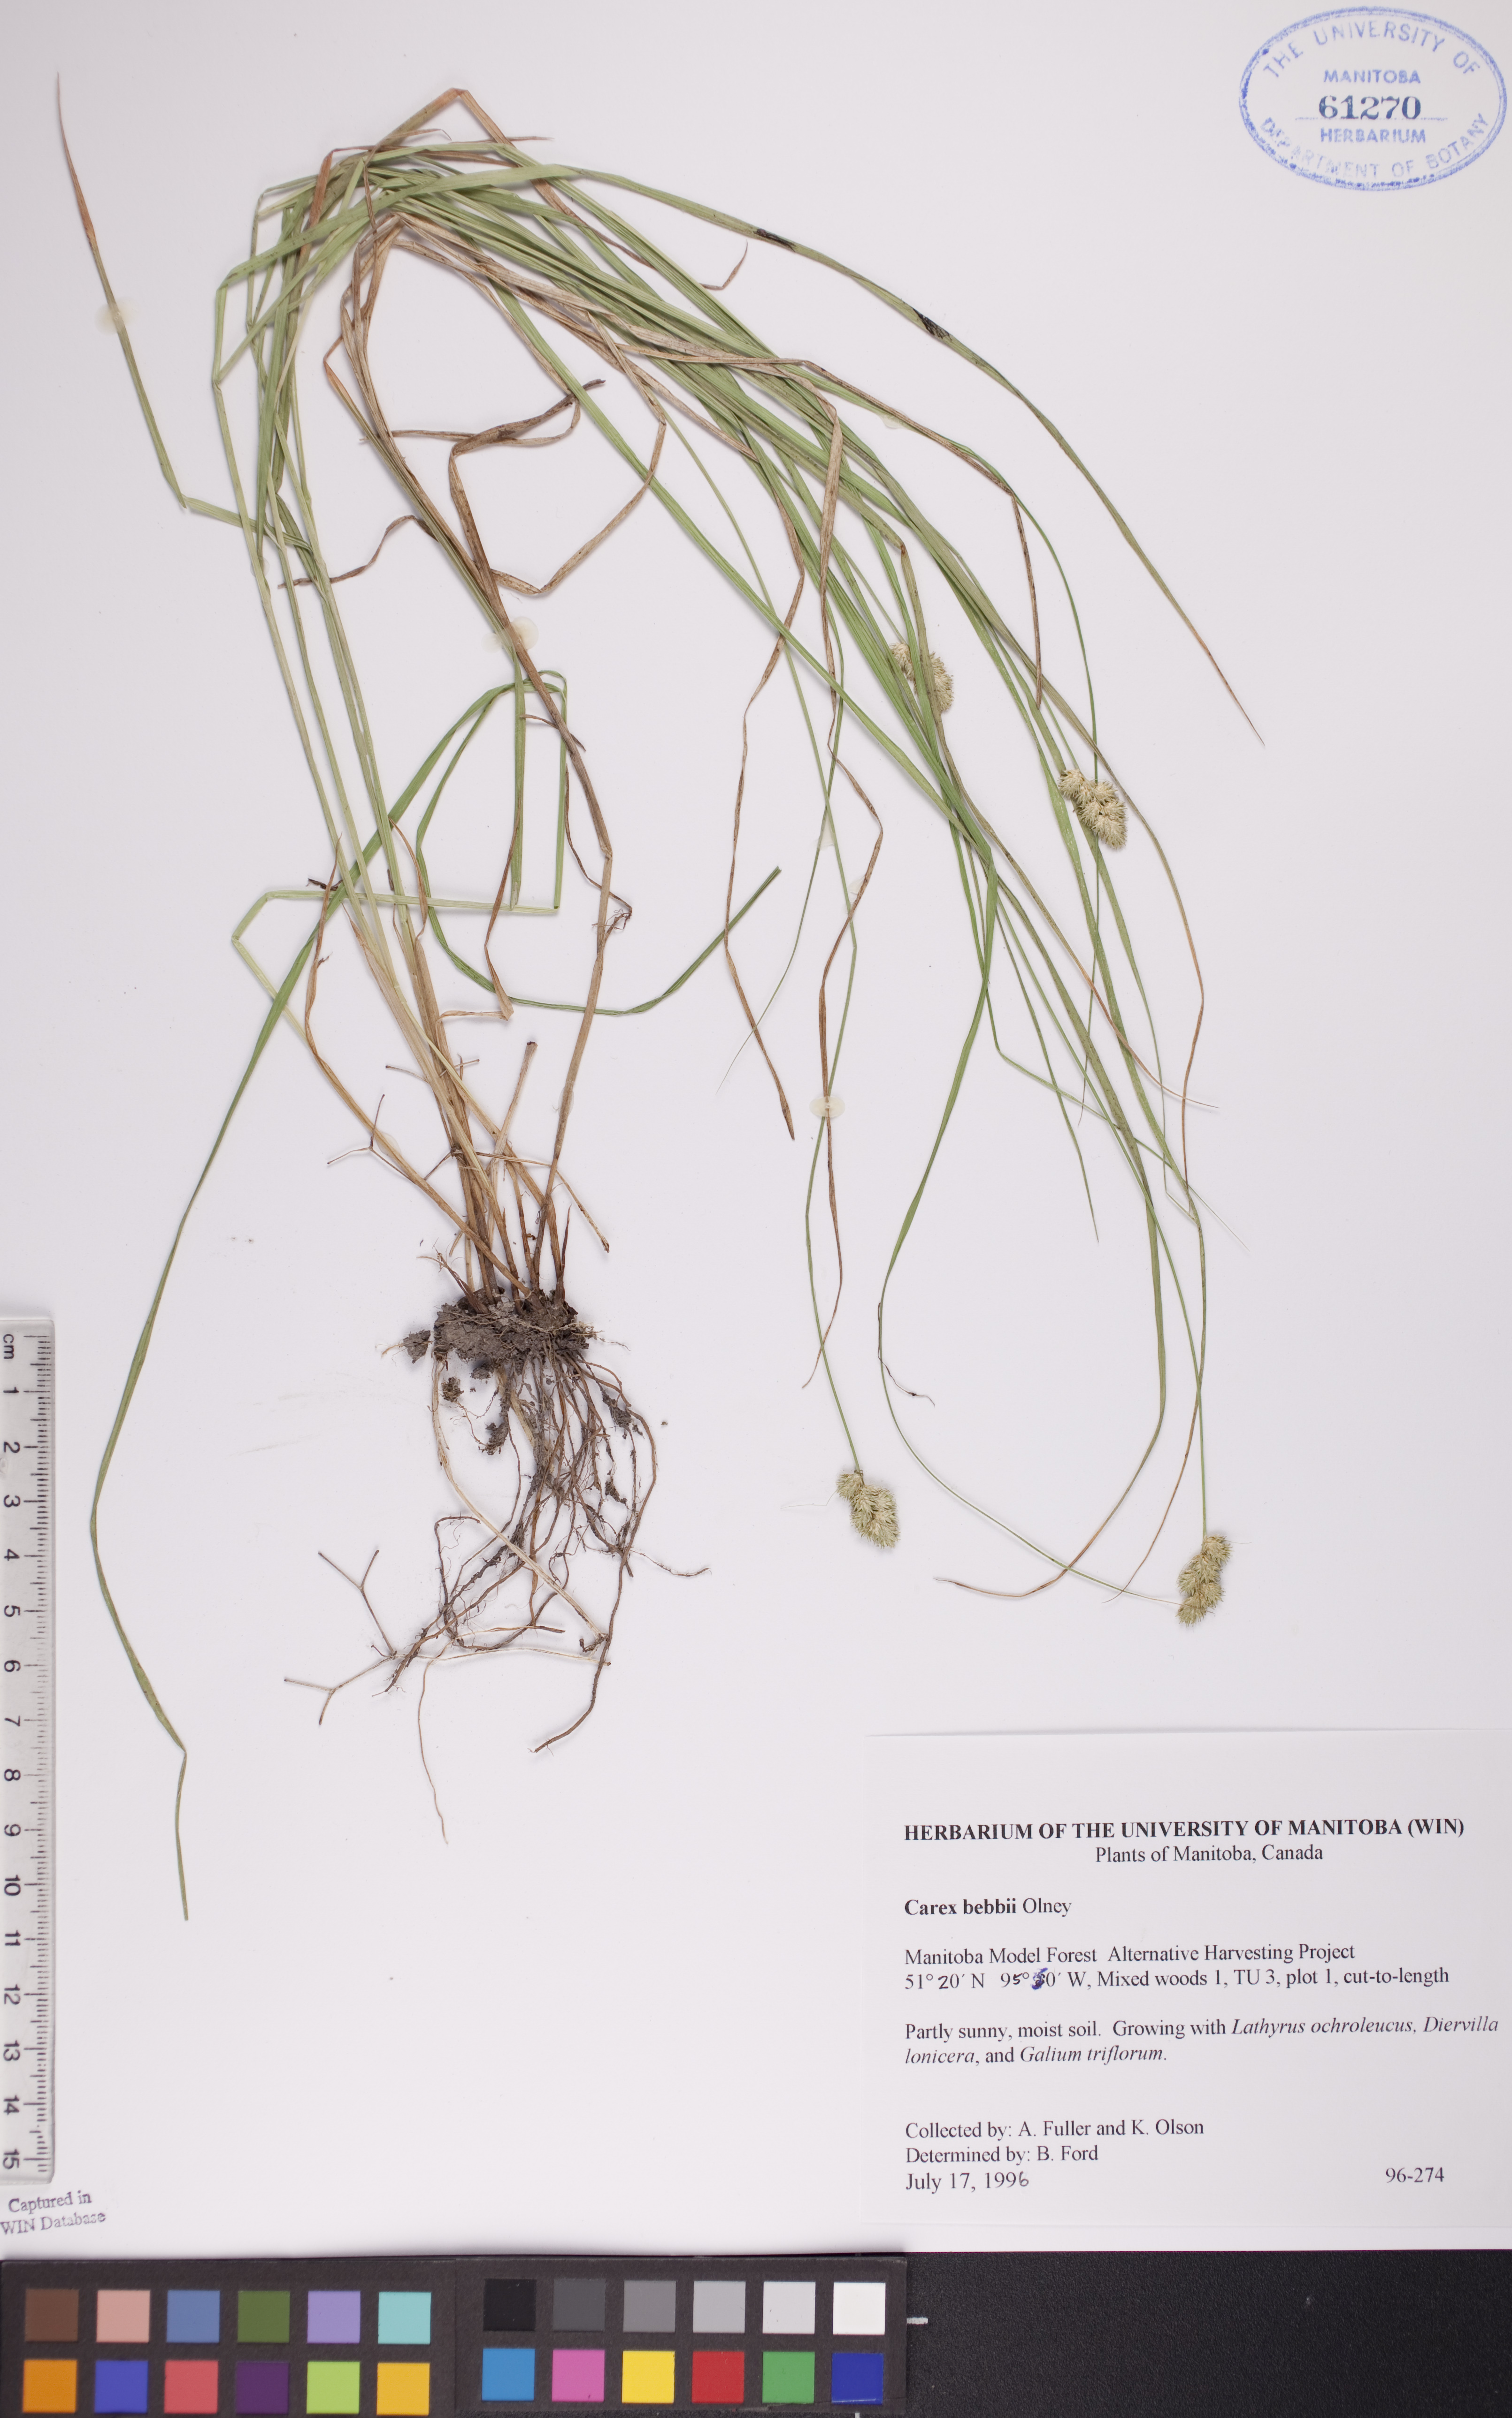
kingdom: Plantae
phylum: Tracheophyta
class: Liliopsida
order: Poales
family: Cyperaceae
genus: Carex
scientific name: Carex bebbii
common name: Bebb's sedge
